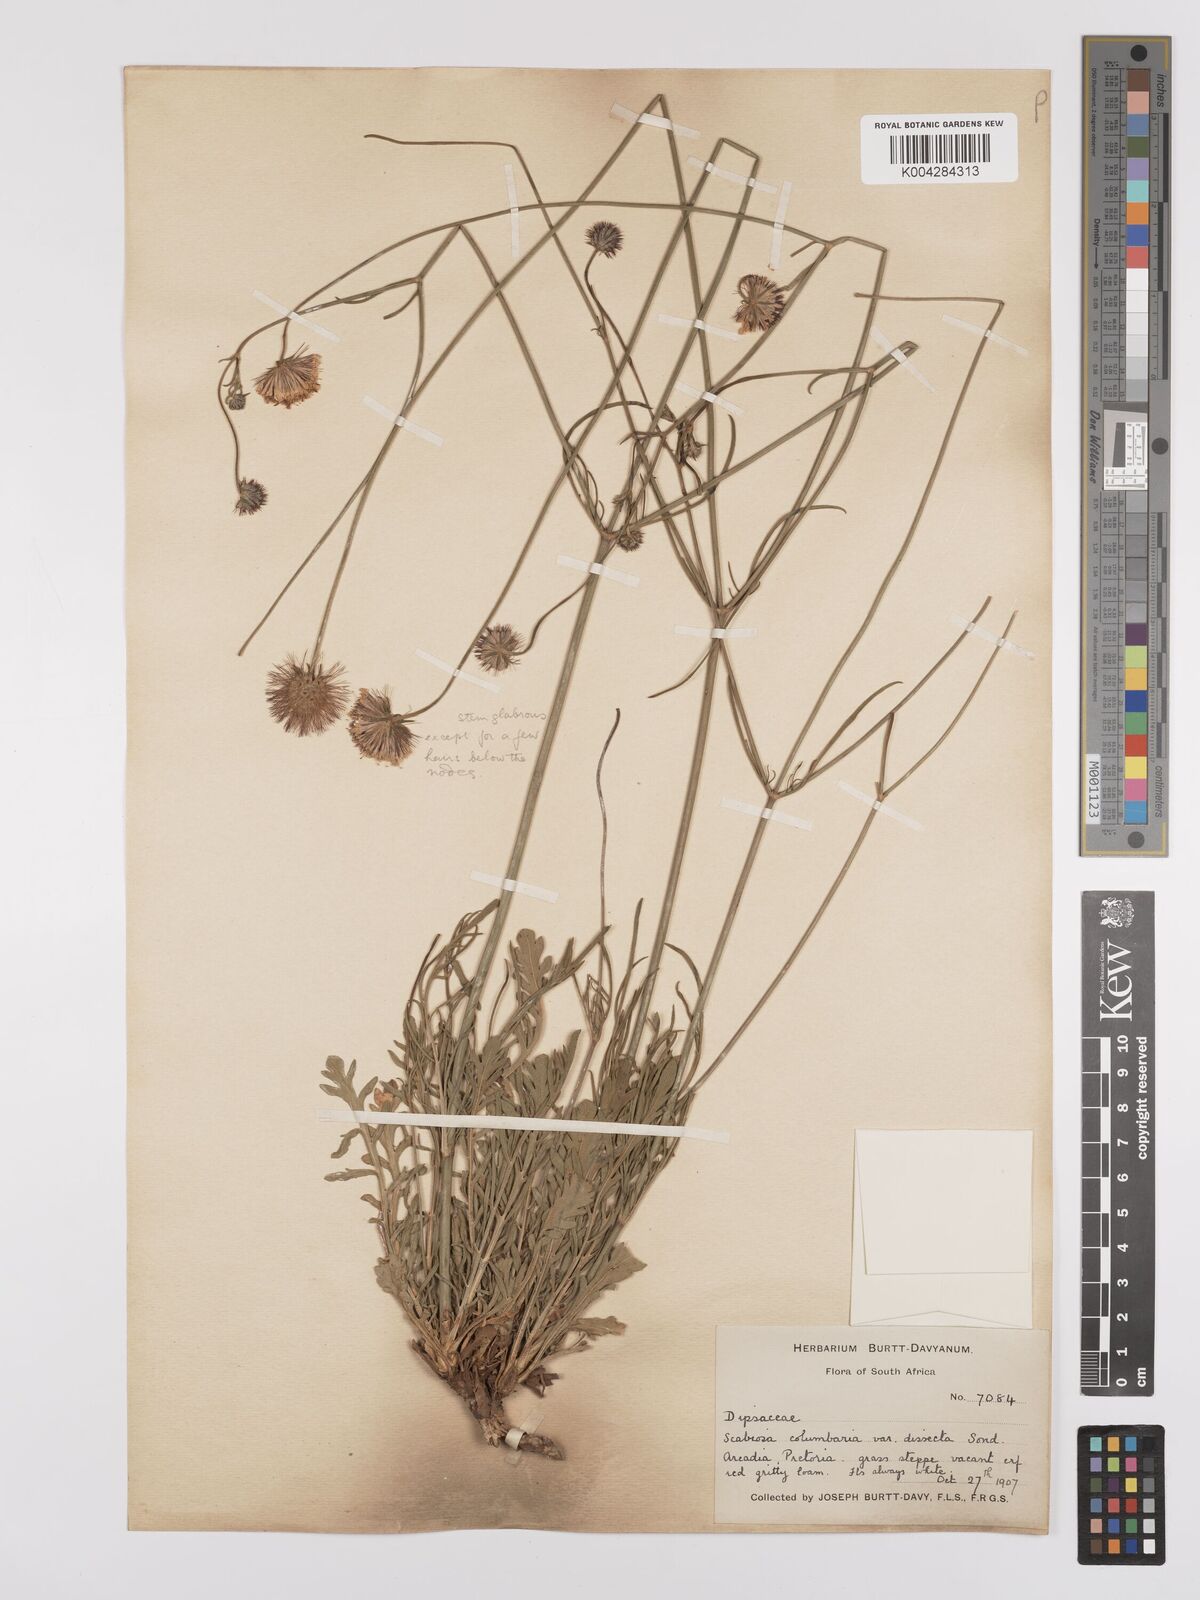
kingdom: Plantae
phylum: Tracheophyta
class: Magnoliopsida
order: Dipsacales
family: Caprifoliaceae
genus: Scabiosa
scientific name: Scabiosa austroafricana
